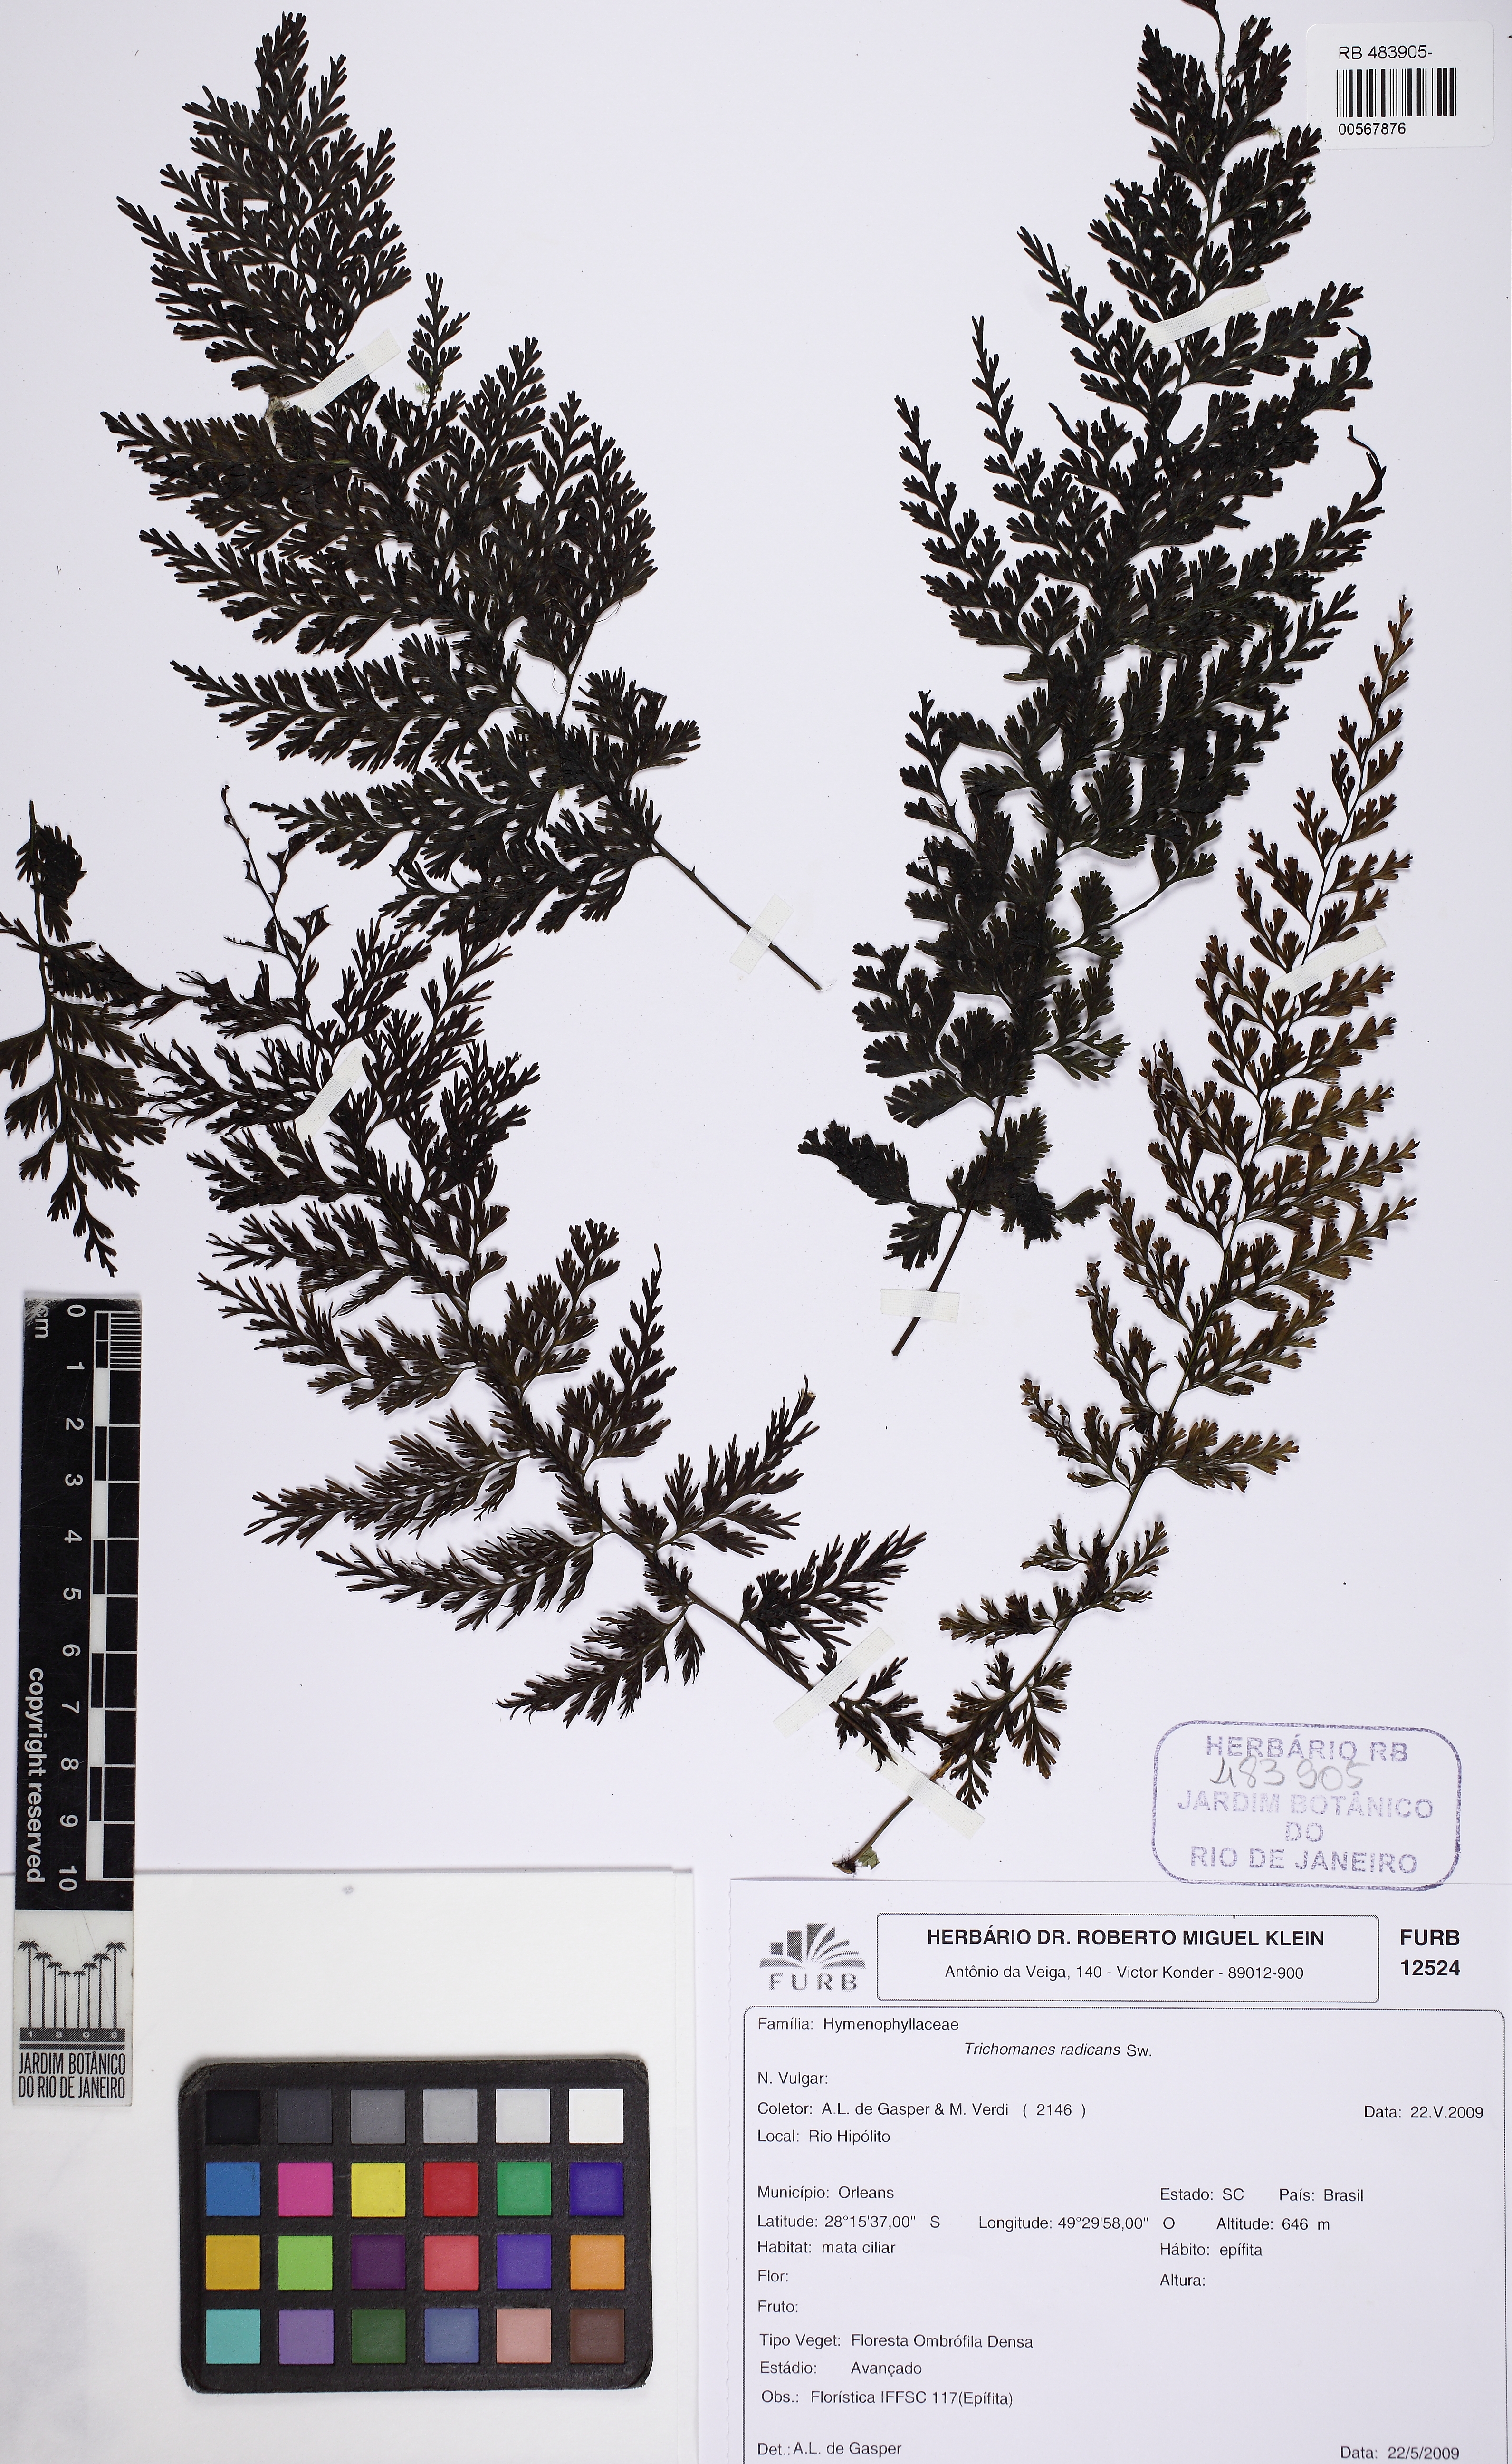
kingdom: Plantae
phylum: Tracheophyta
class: Polypodiopsida
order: Hymenophyllales
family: Hymenophyllaceae
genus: Vandenboschia
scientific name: Vandenboschia radicans
